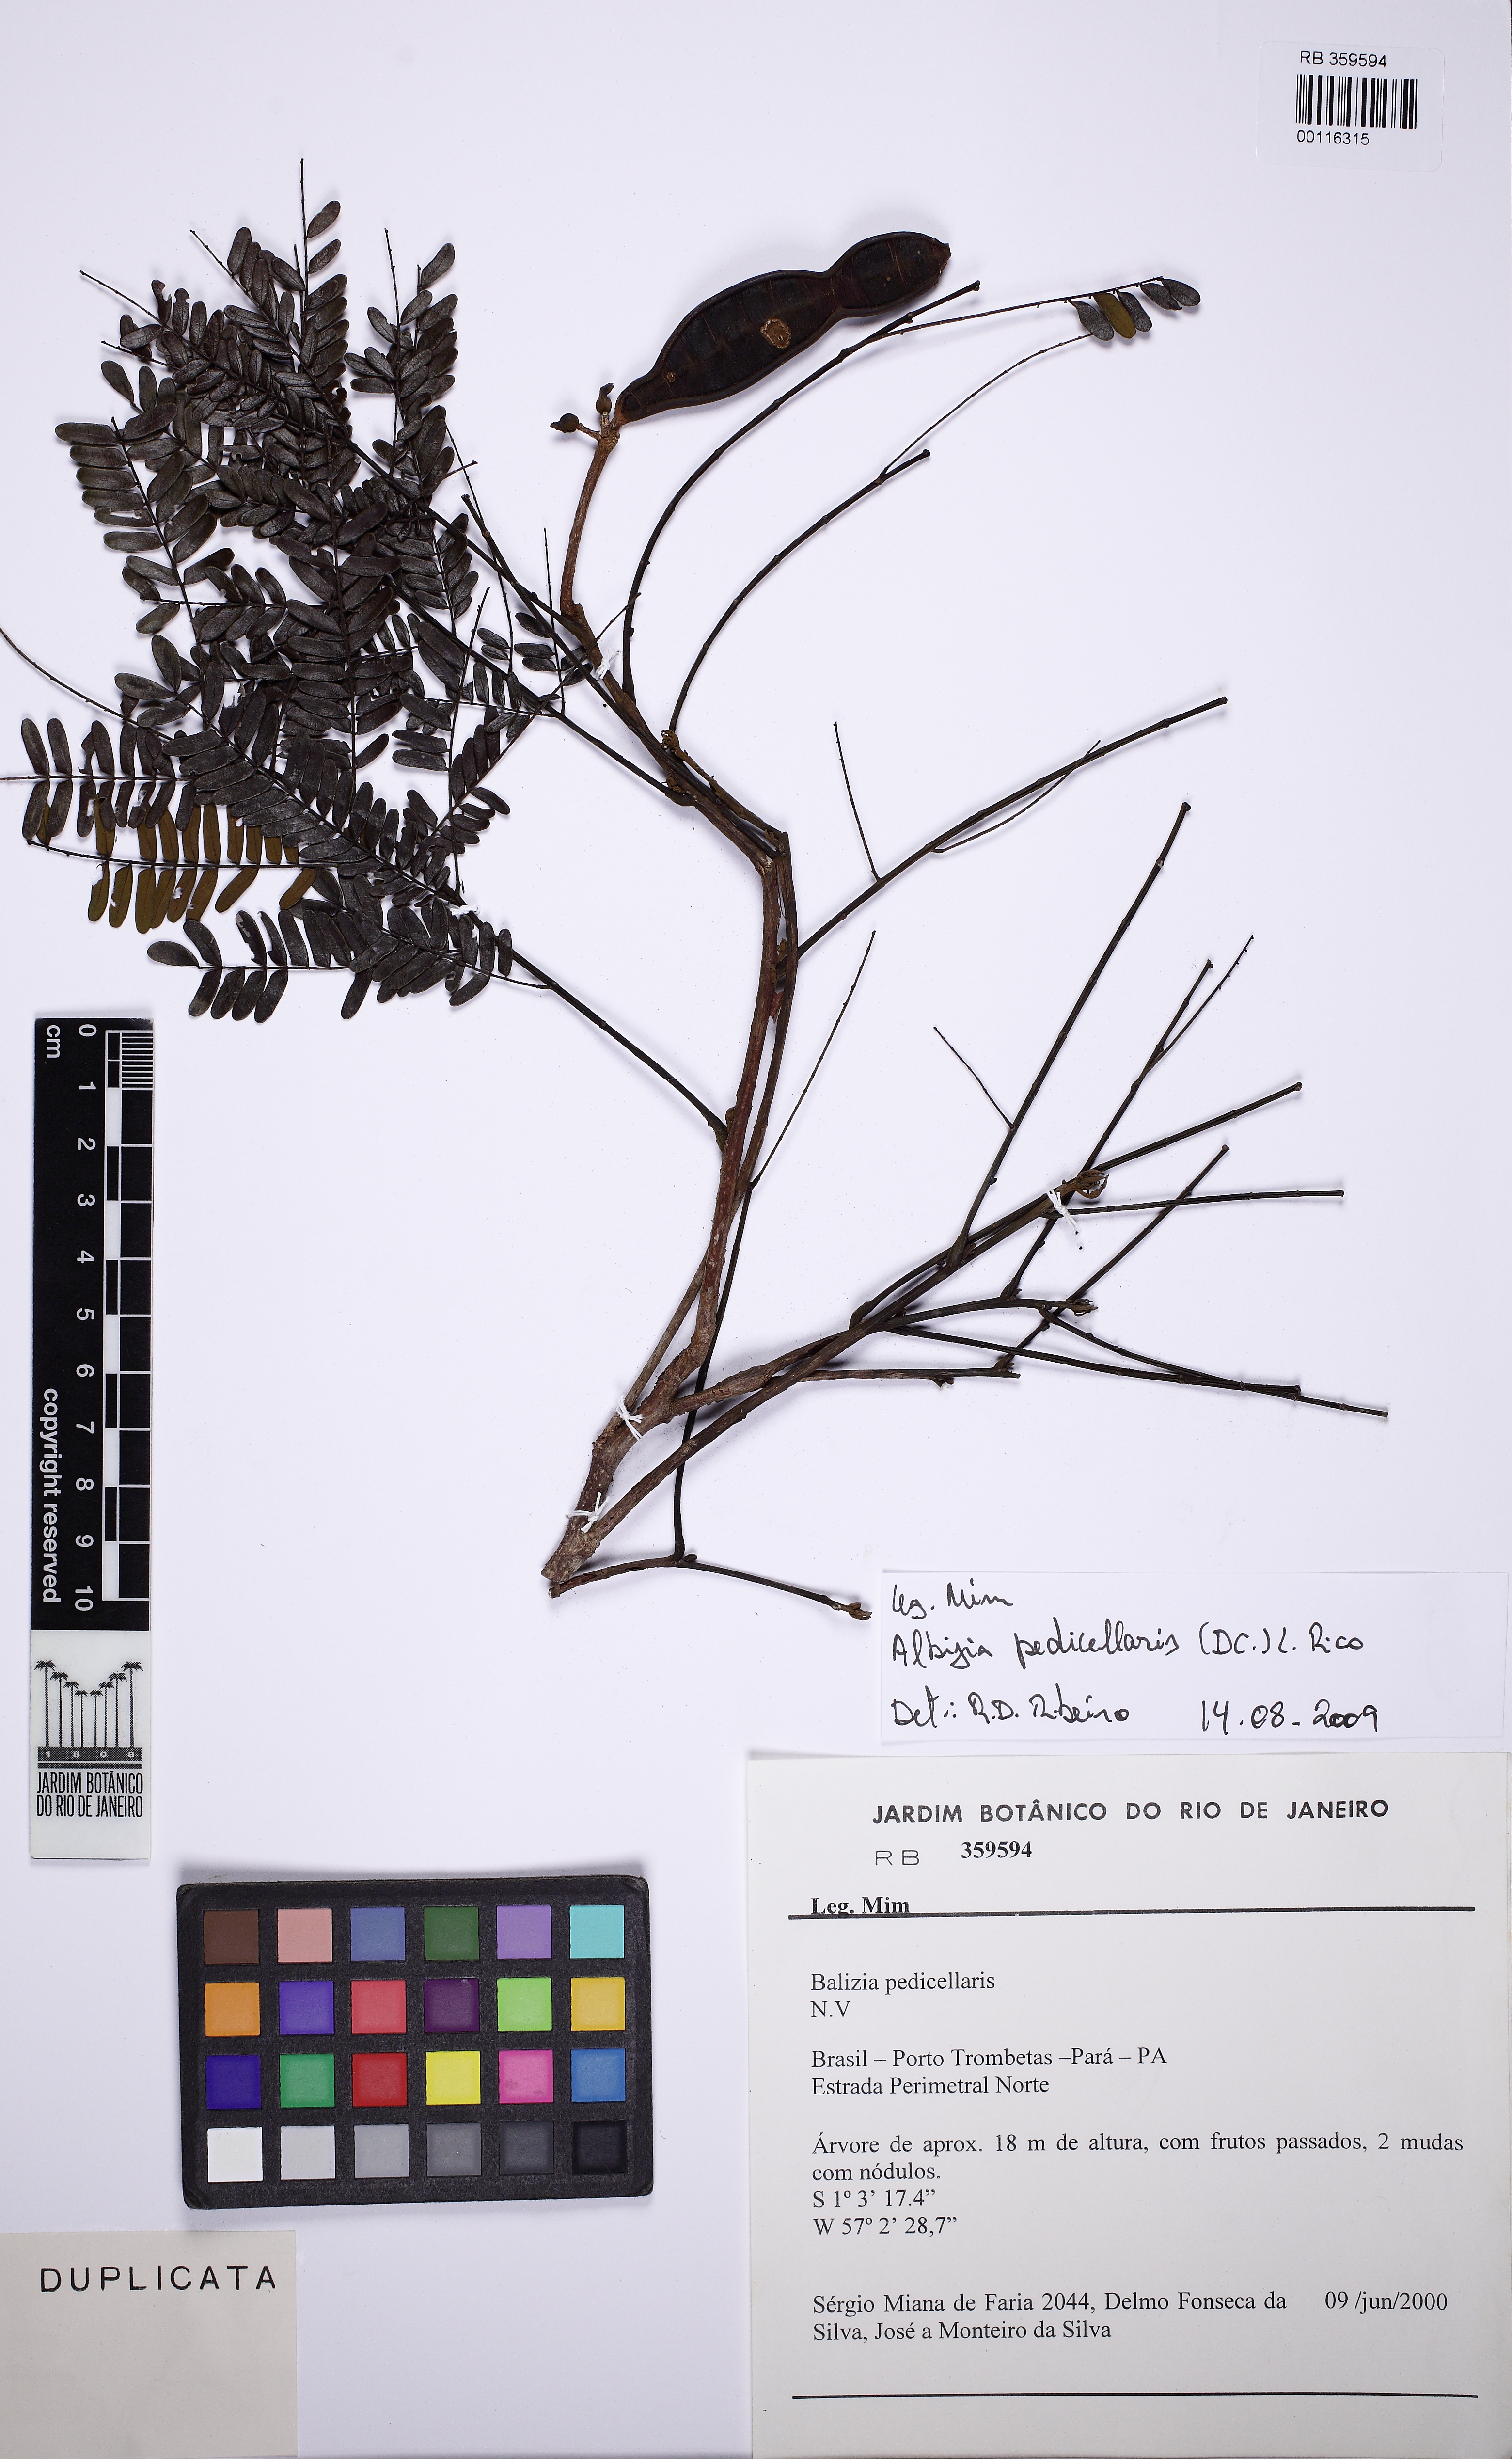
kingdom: Plantae
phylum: Tracheophyta
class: Magnoliopsida
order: Fabales
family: Fabaceae
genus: Balizia
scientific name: Balizia pedicellaris
